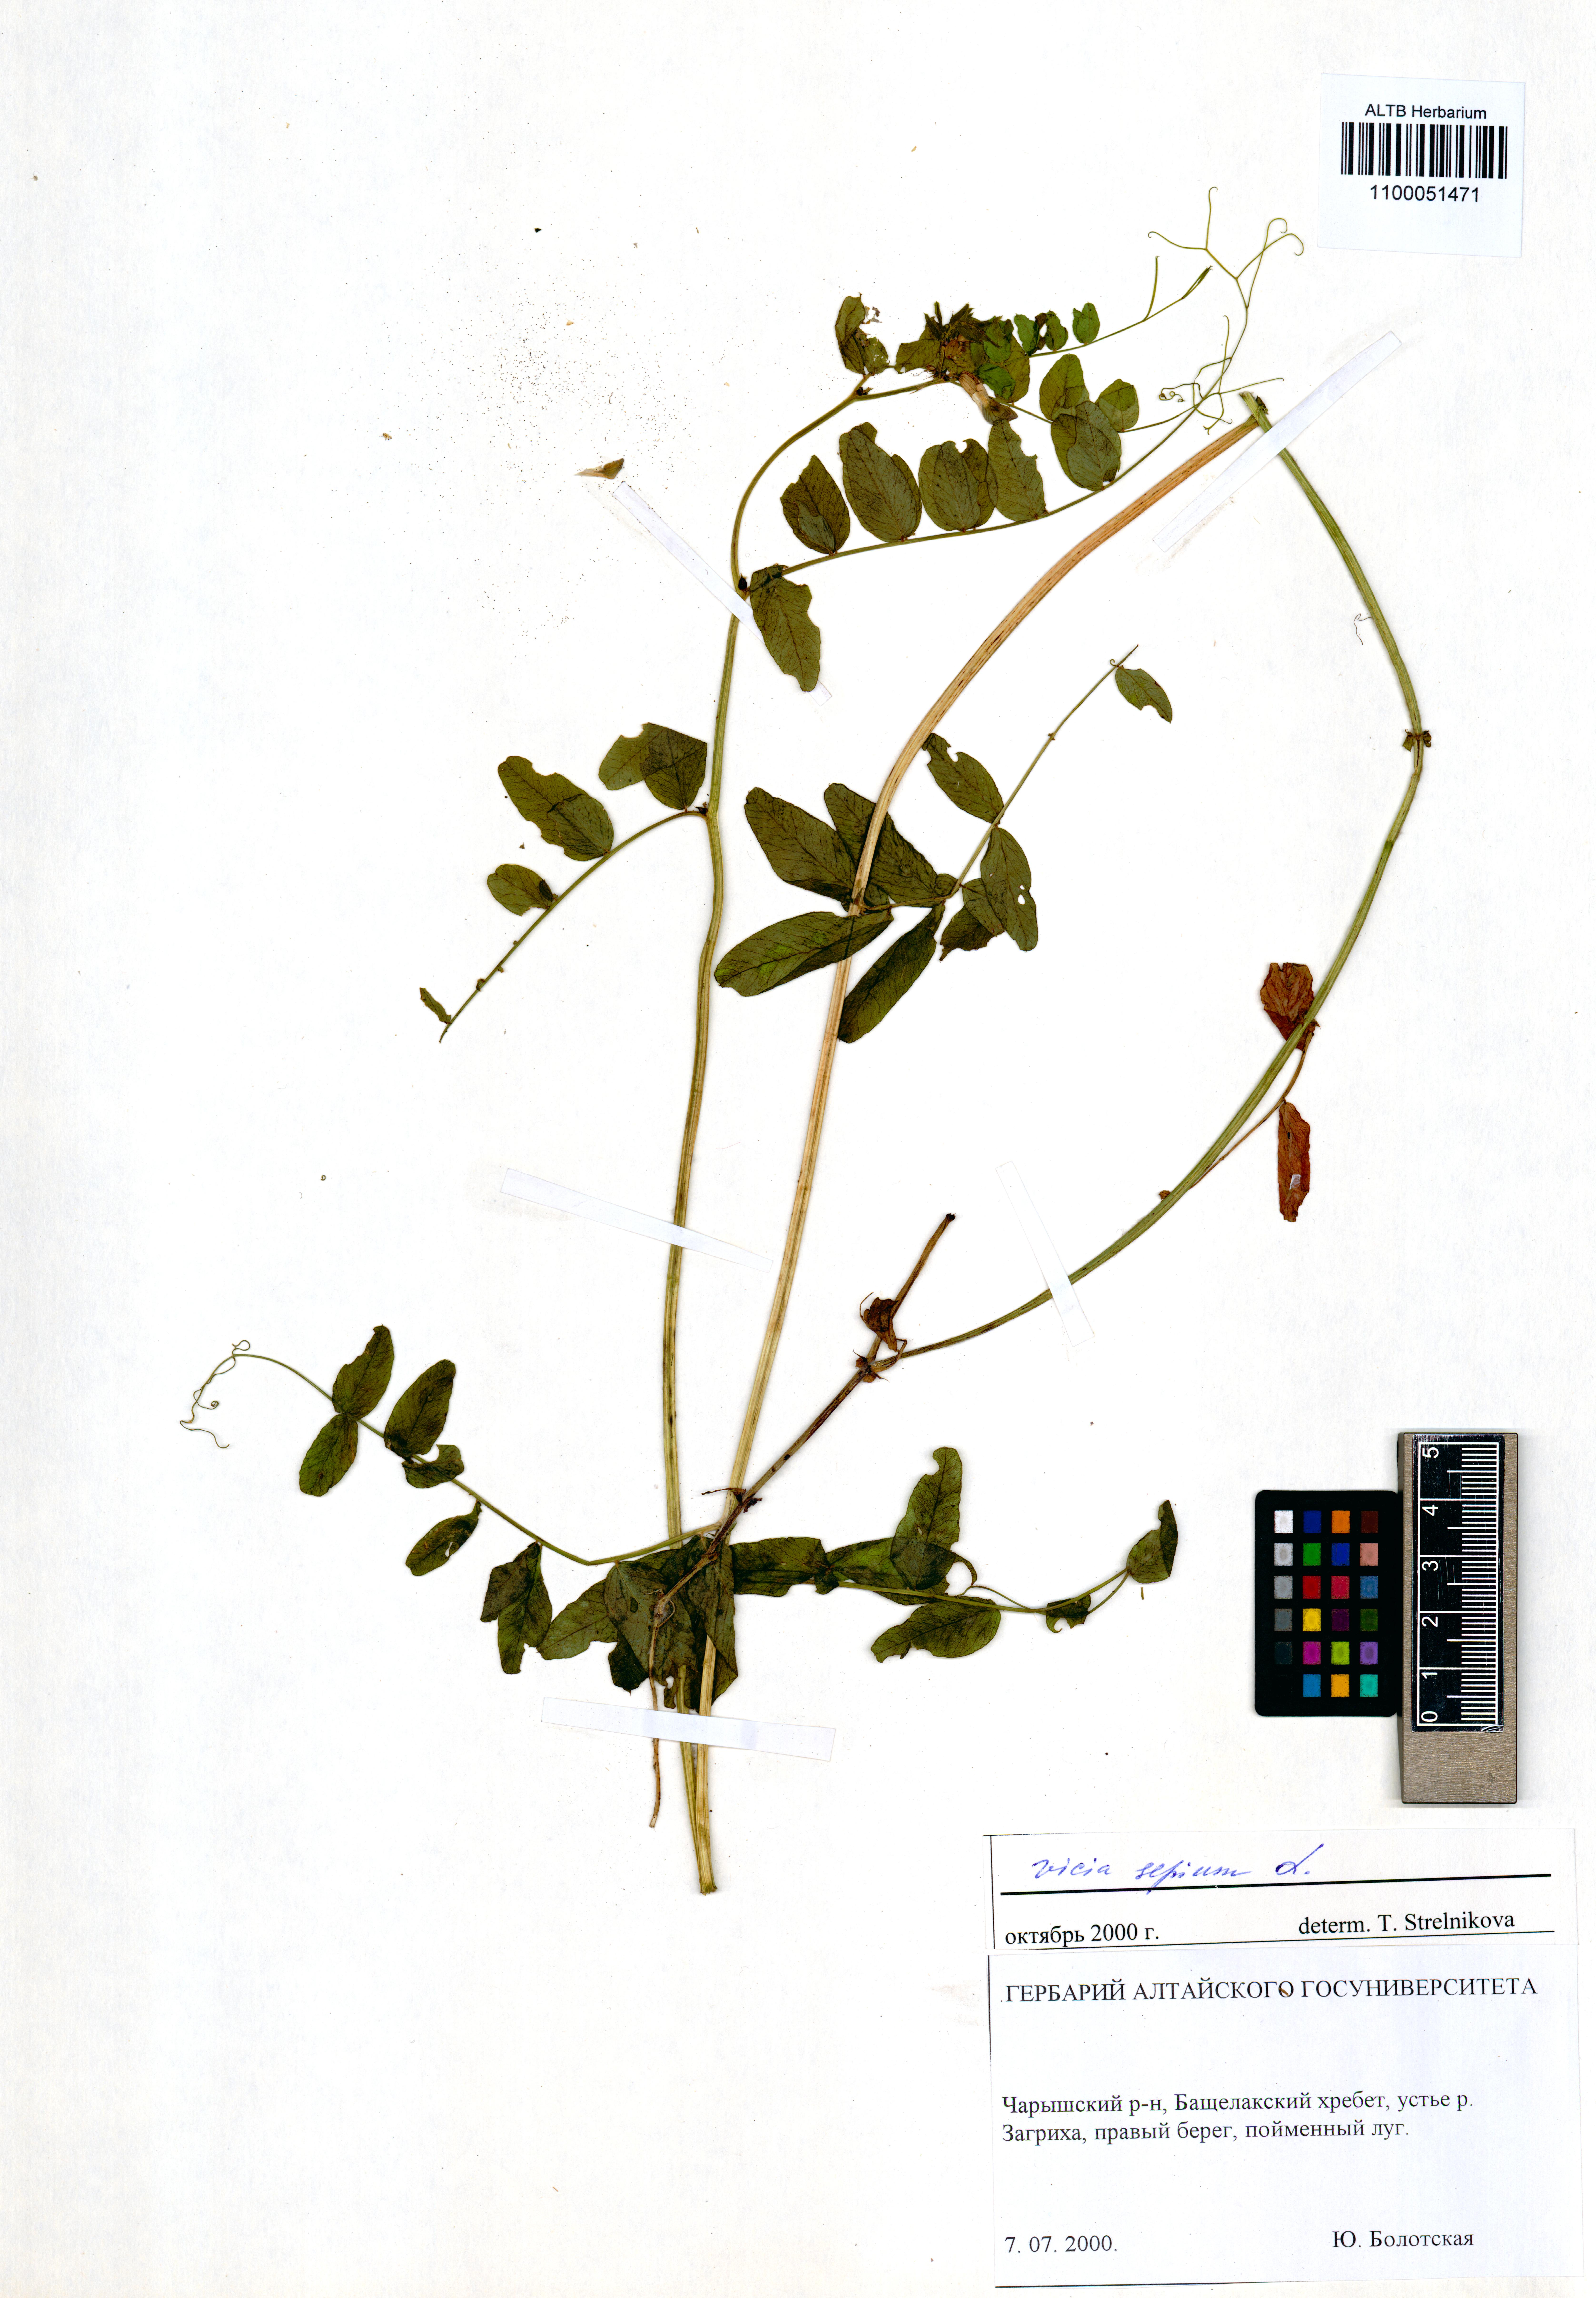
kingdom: Plantae
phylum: Tracheophyta
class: Magnoliopsida
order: Fabales
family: Fabaceae
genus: Vicia
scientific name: Vicia sepium
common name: Bush vetch
